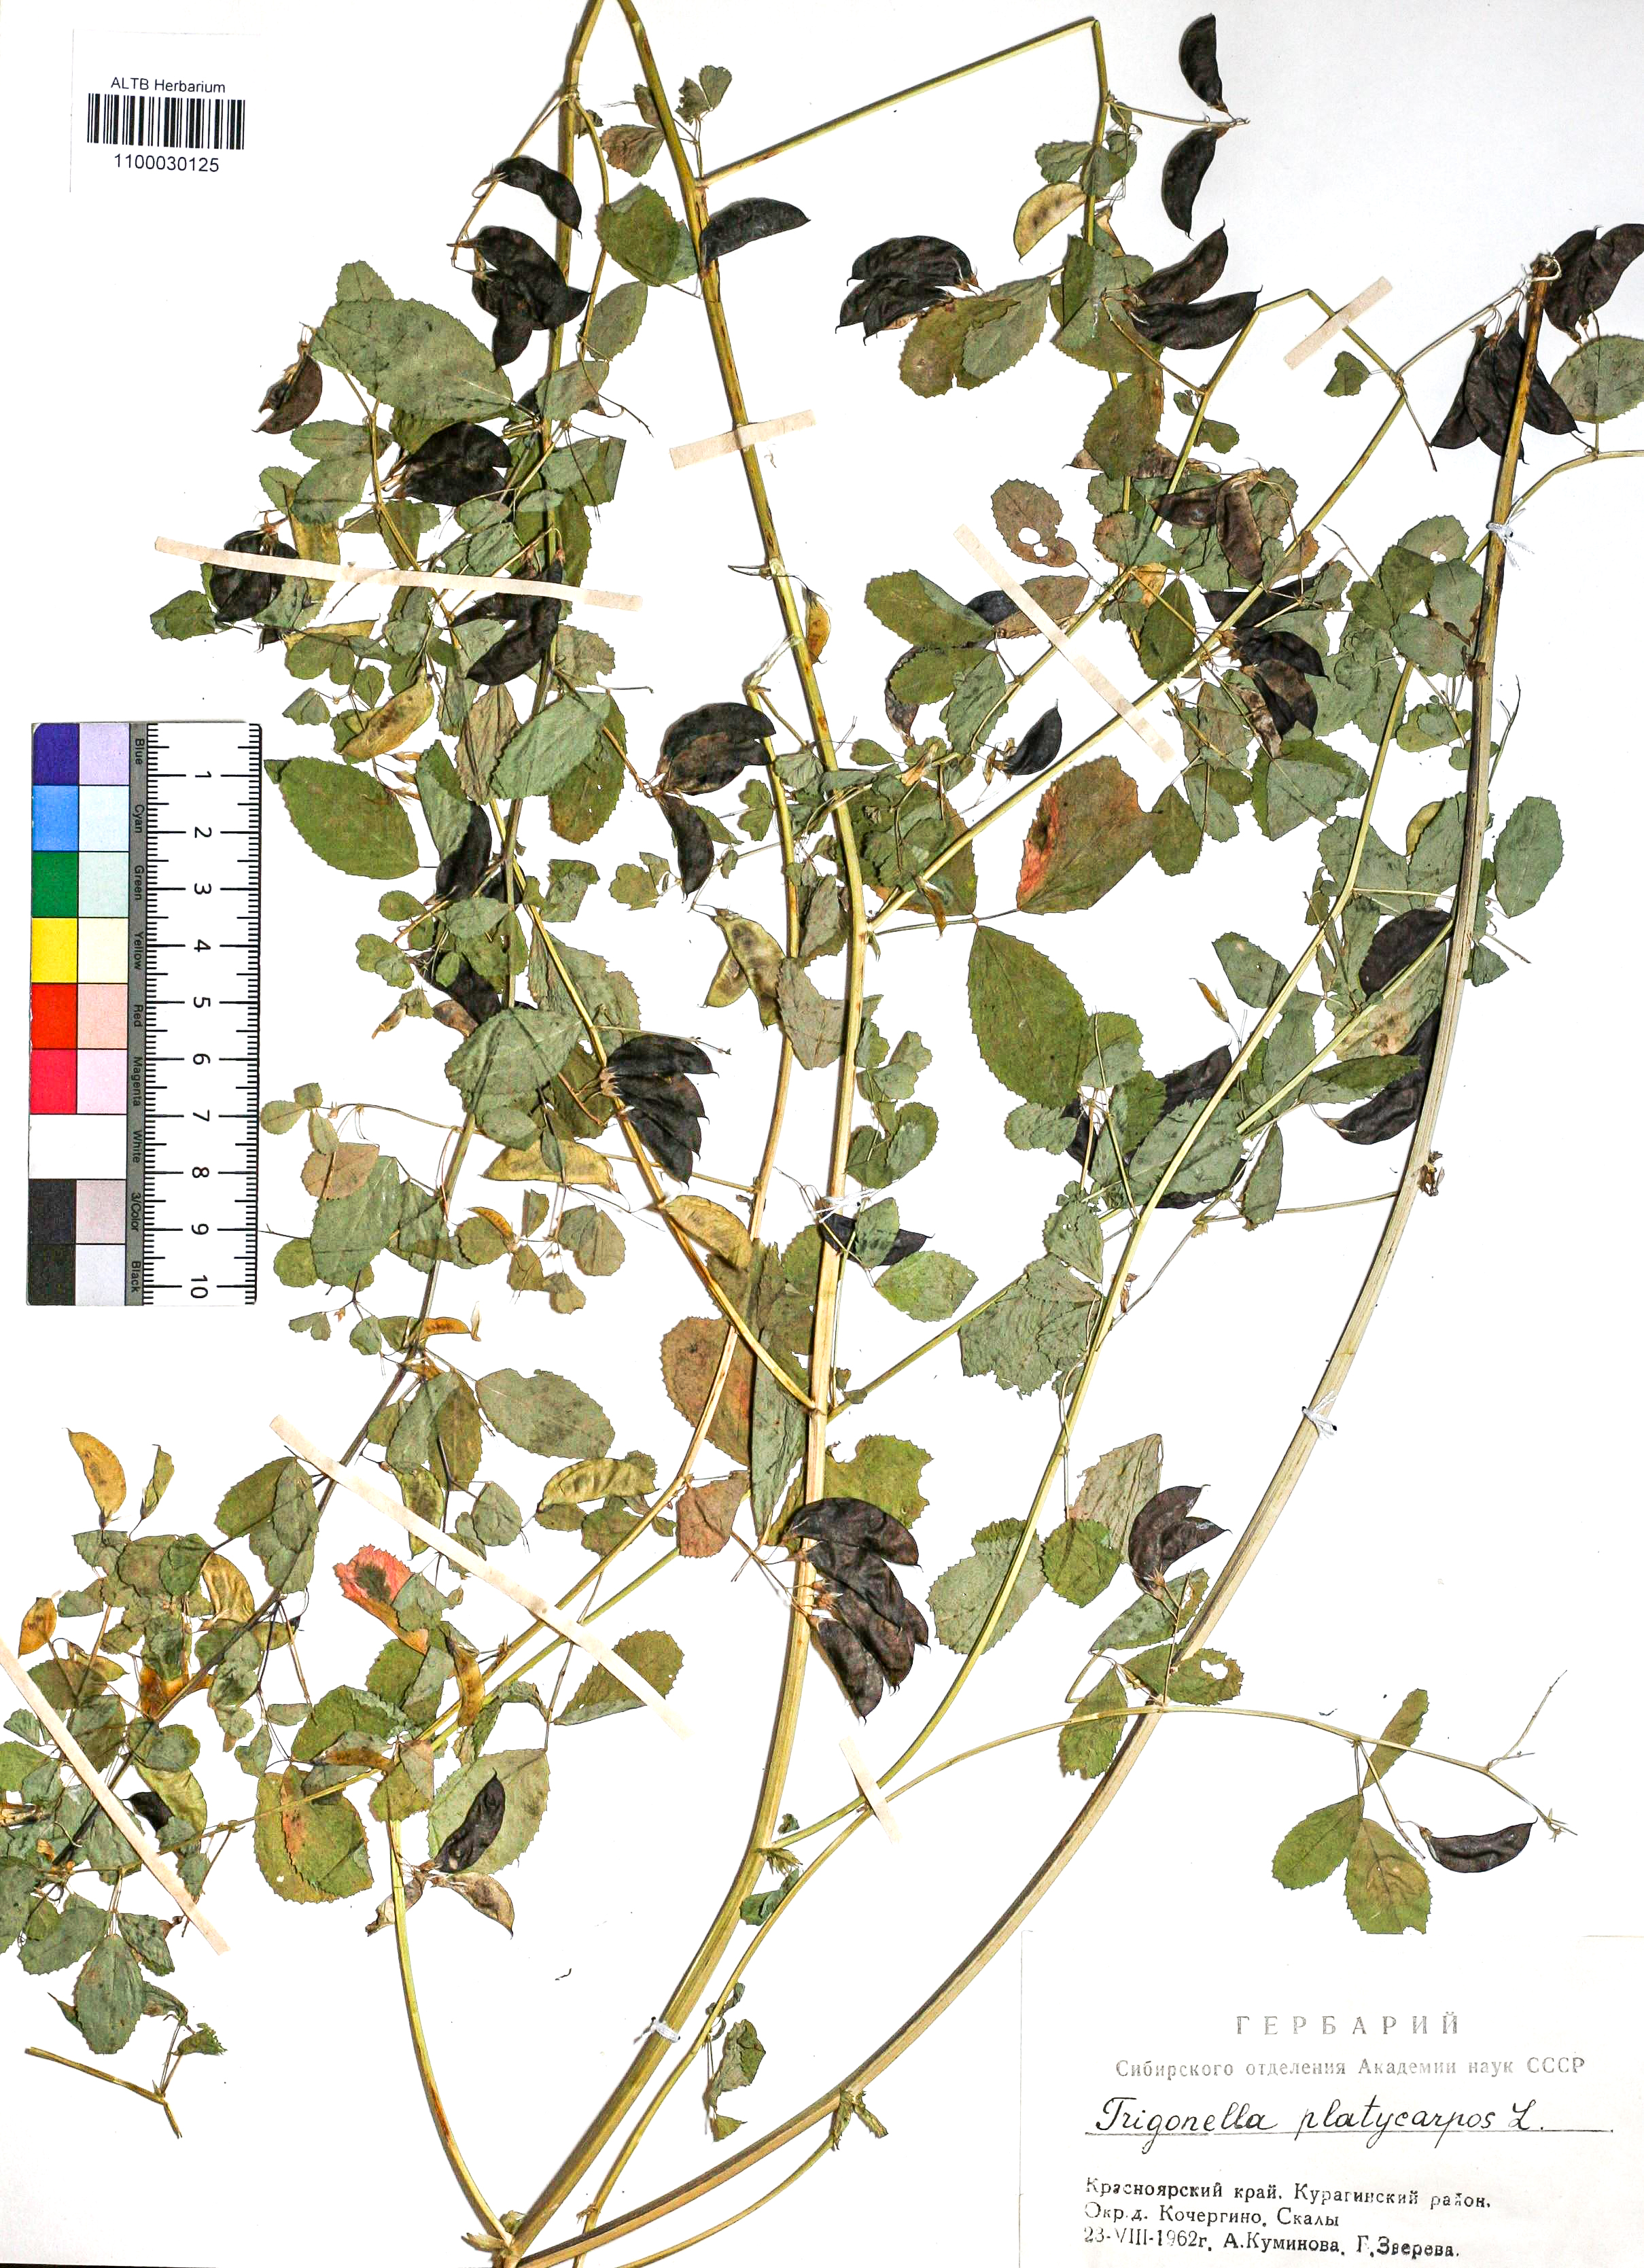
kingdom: Plantae
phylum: Tracheophyta
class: Magnoliopsida
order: Fabales
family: Fabaceae
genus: Medicago
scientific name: Medicago platycarpos
